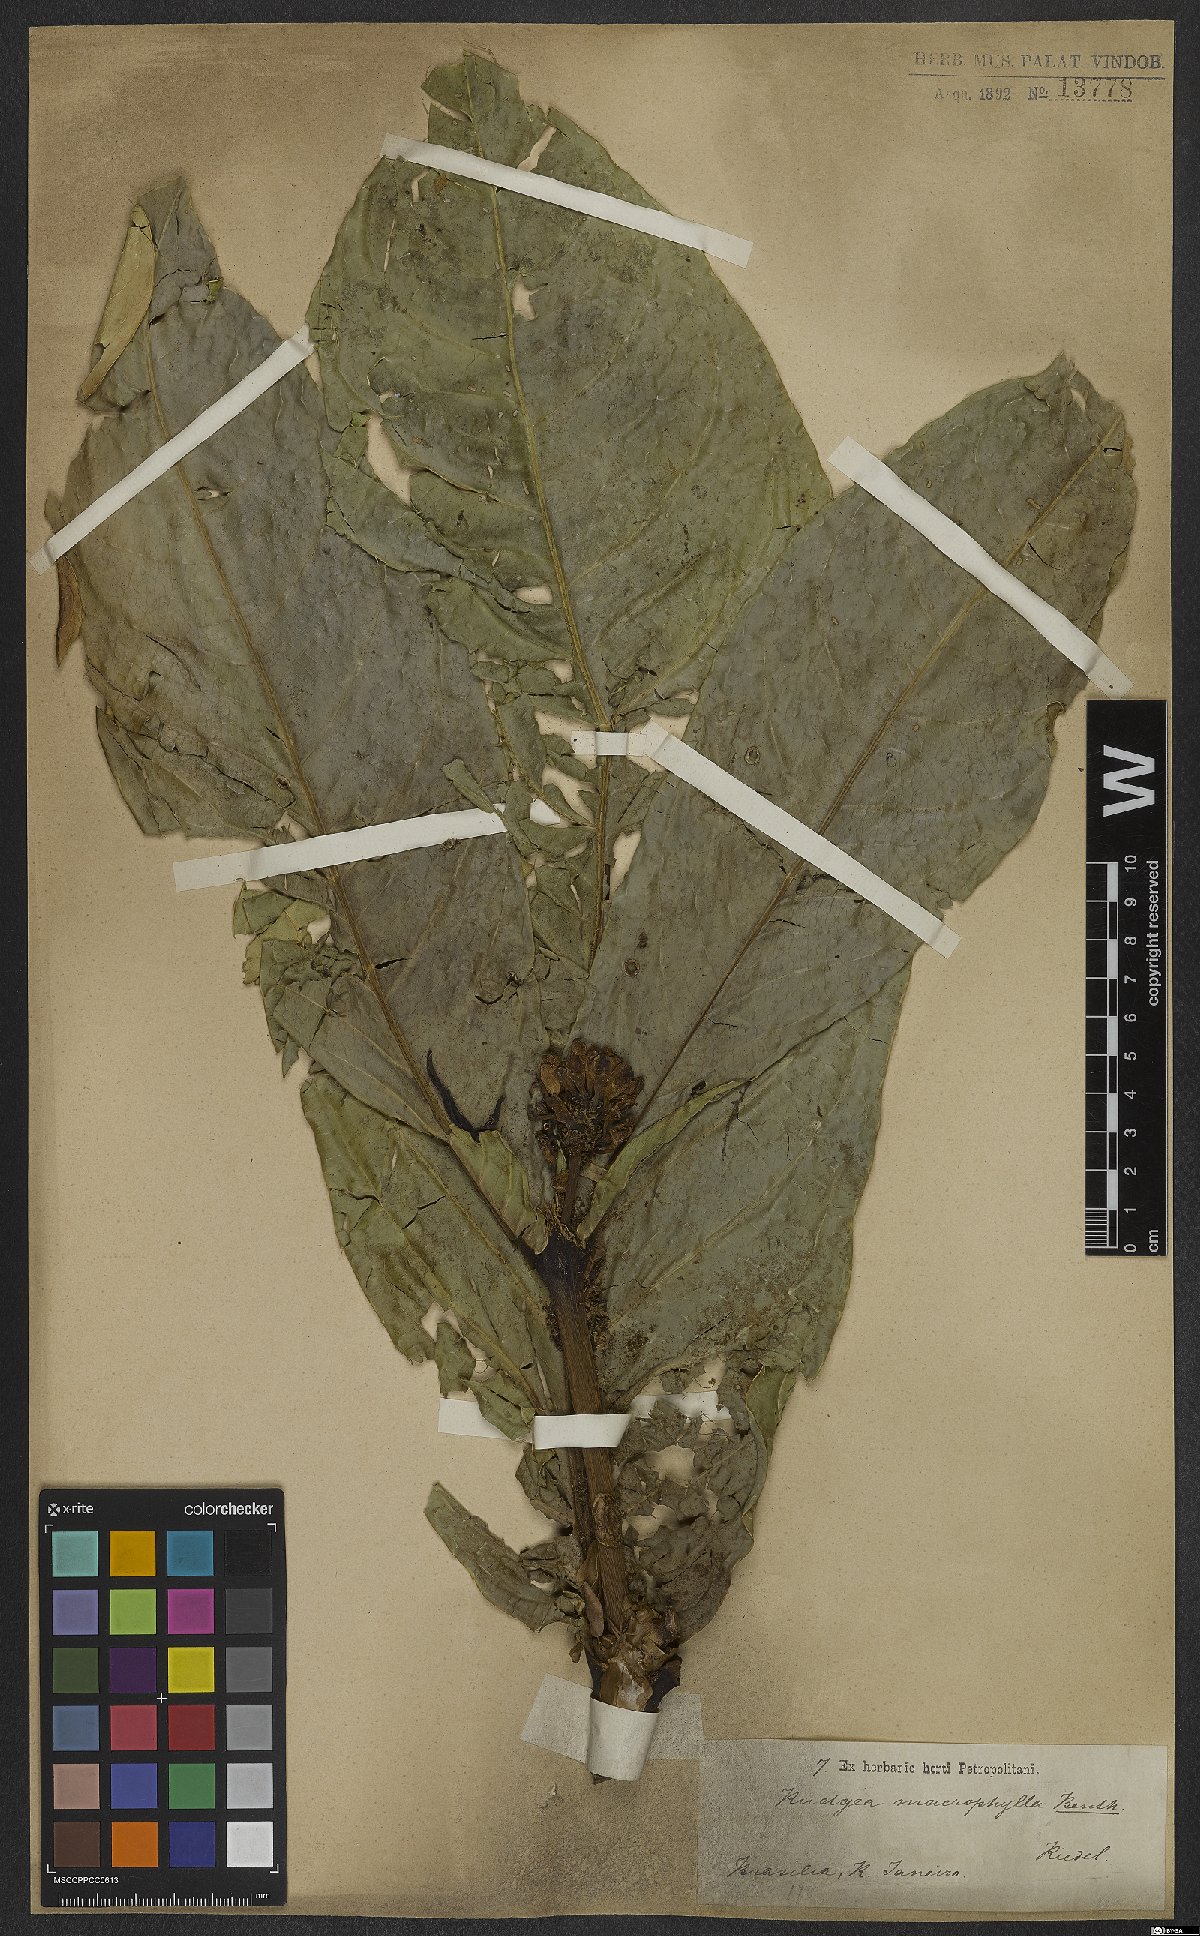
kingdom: Plantae
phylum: Tracheophyta
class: Magnoliopsida
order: Gentianales
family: Rubiaceae
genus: Rudgea
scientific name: Rudgea macrophylla
